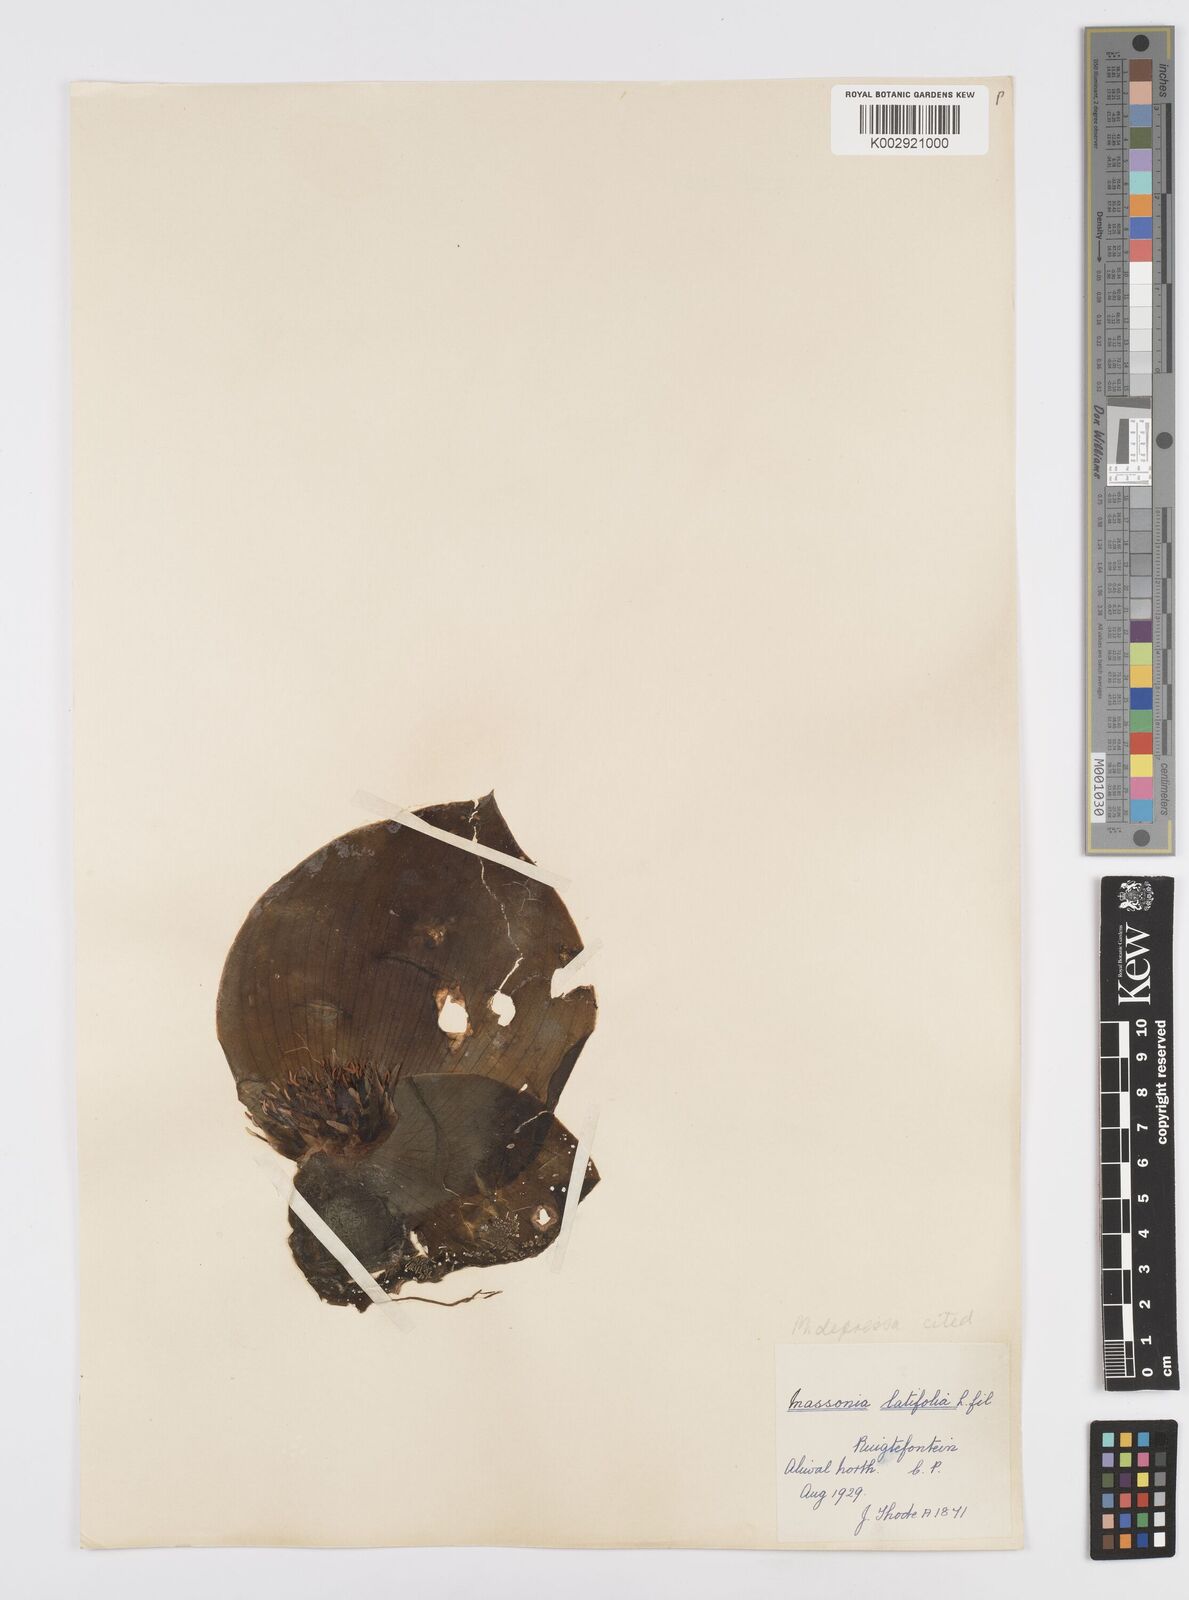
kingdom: Plantae
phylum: Tracheophyta
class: Liliopsida
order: Asparagales
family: Asparagaceae
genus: Massonia
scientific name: Massonia
